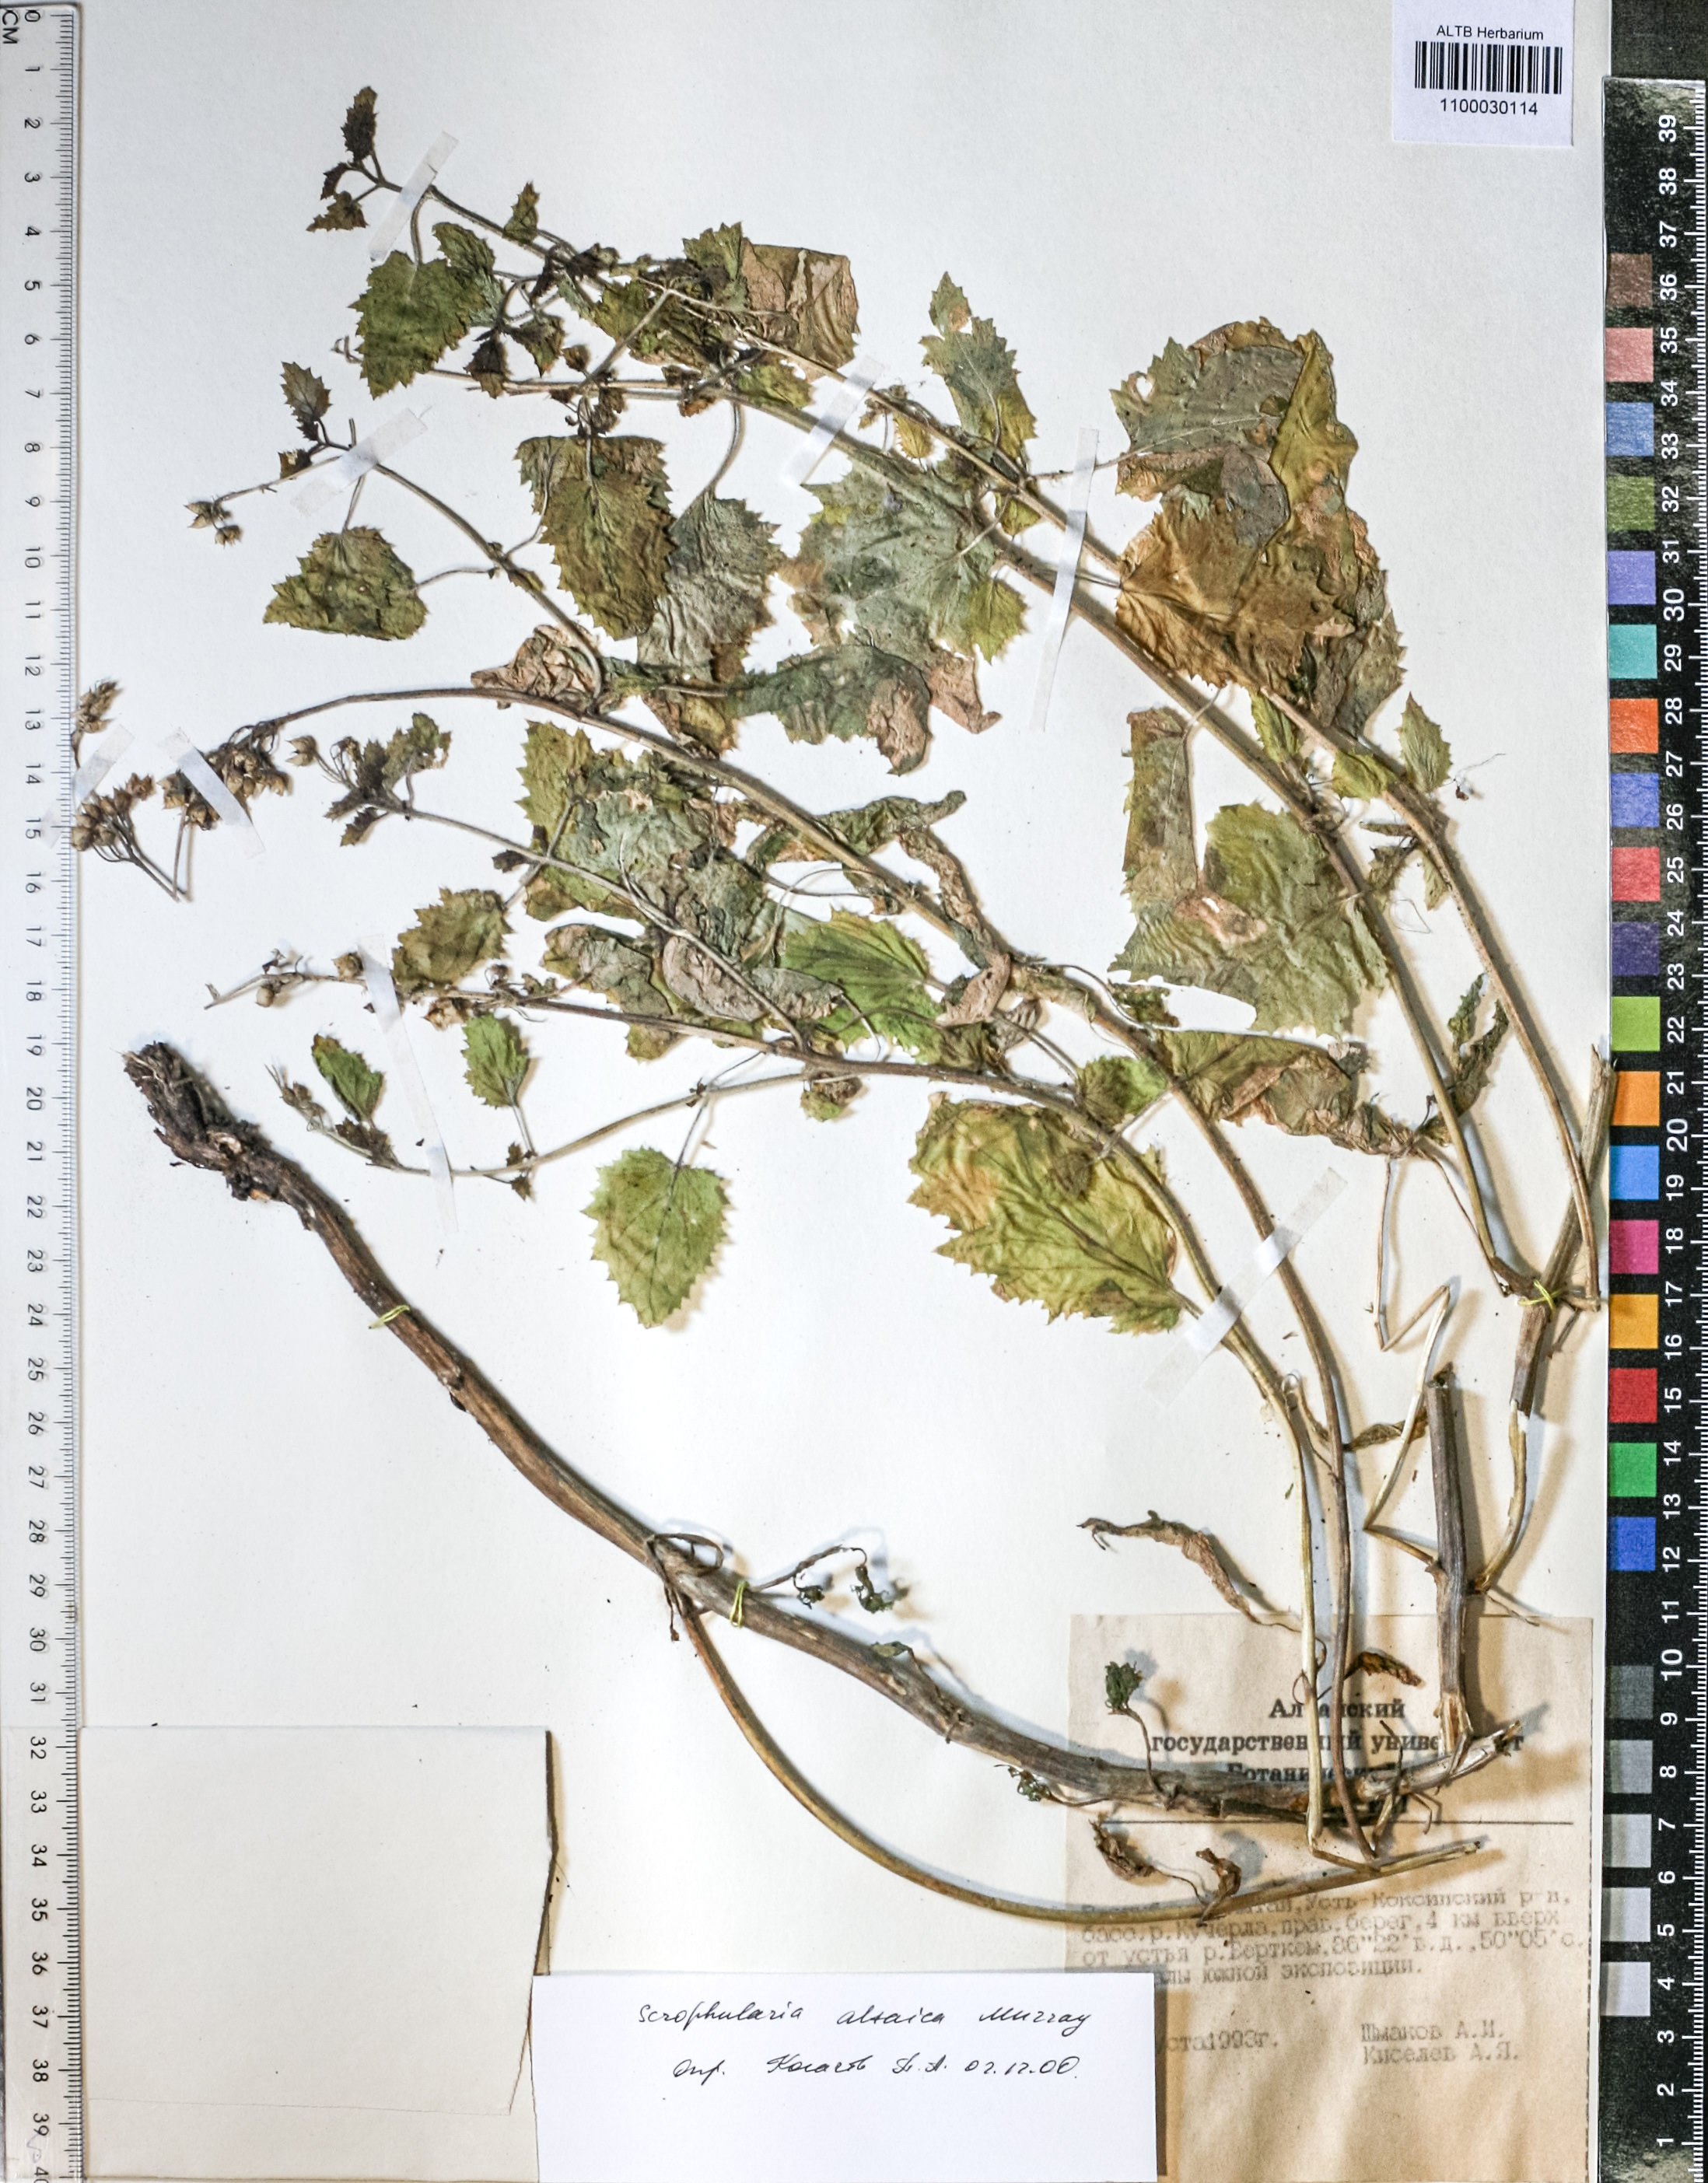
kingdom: Plantae
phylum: Tracheophyta
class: Magnoliopsida
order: Lamiales
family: Scrophulariaceae
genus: Scrophularia
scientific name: Scrophularia altaica
